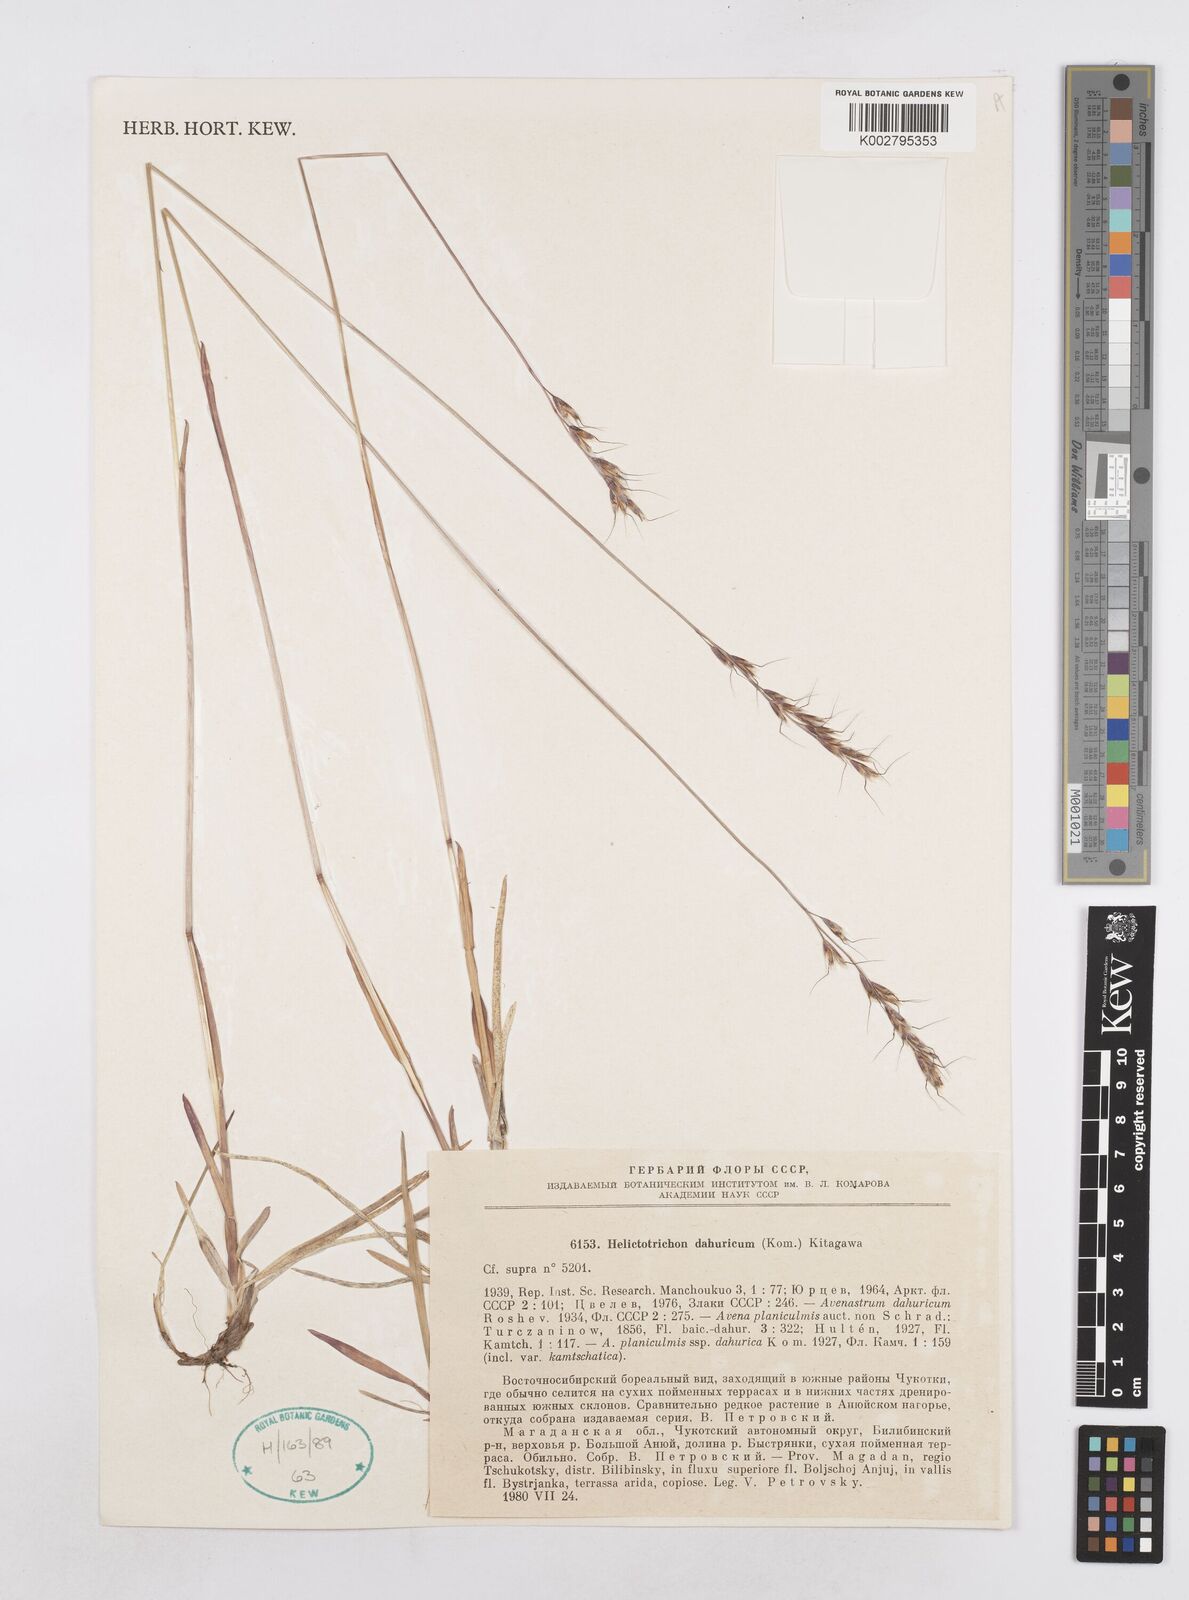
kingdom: Plantae
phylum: Tracheophyta
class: Liliopsida
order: Poales
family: Poaceae
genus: Helictochloa
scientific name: Helictochloa dahurica
